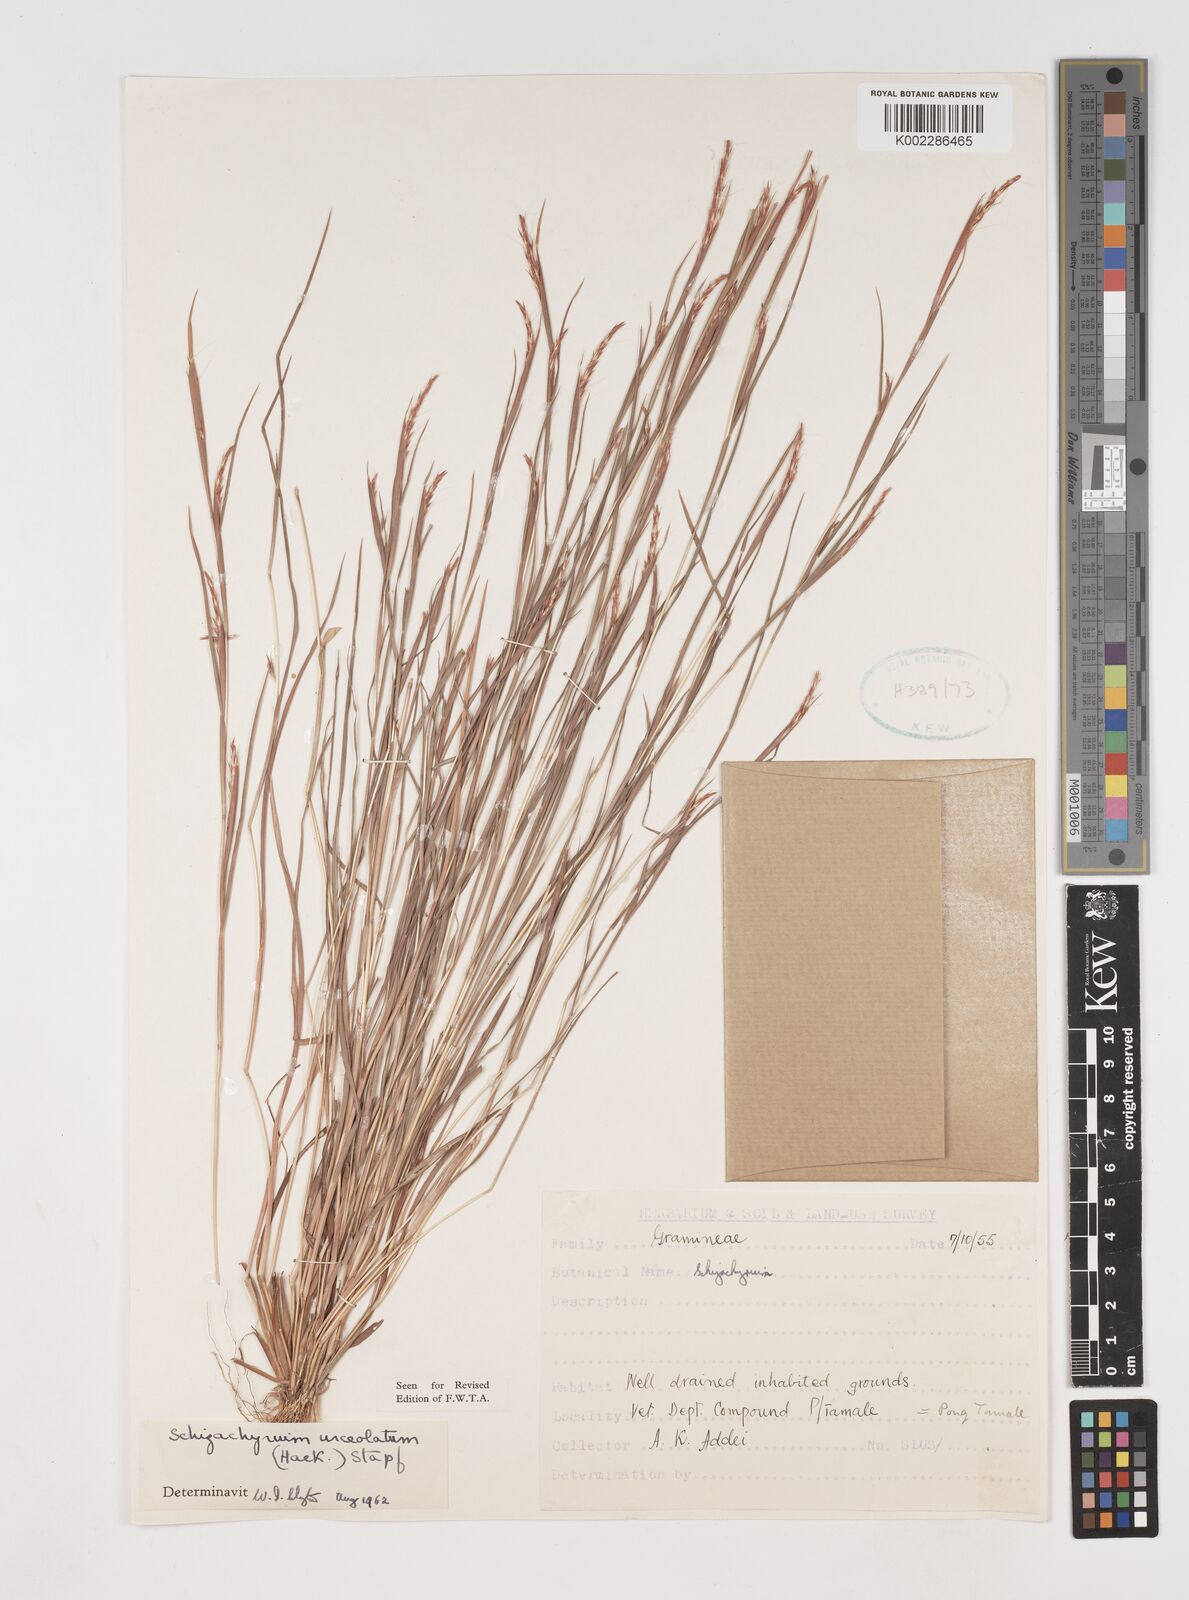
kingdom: Plantae
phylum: Tracheophyta
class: Liliopsida
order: Poales
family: Poaceae
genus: Schizachyrium
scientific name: Schizachyrium urceolatum
